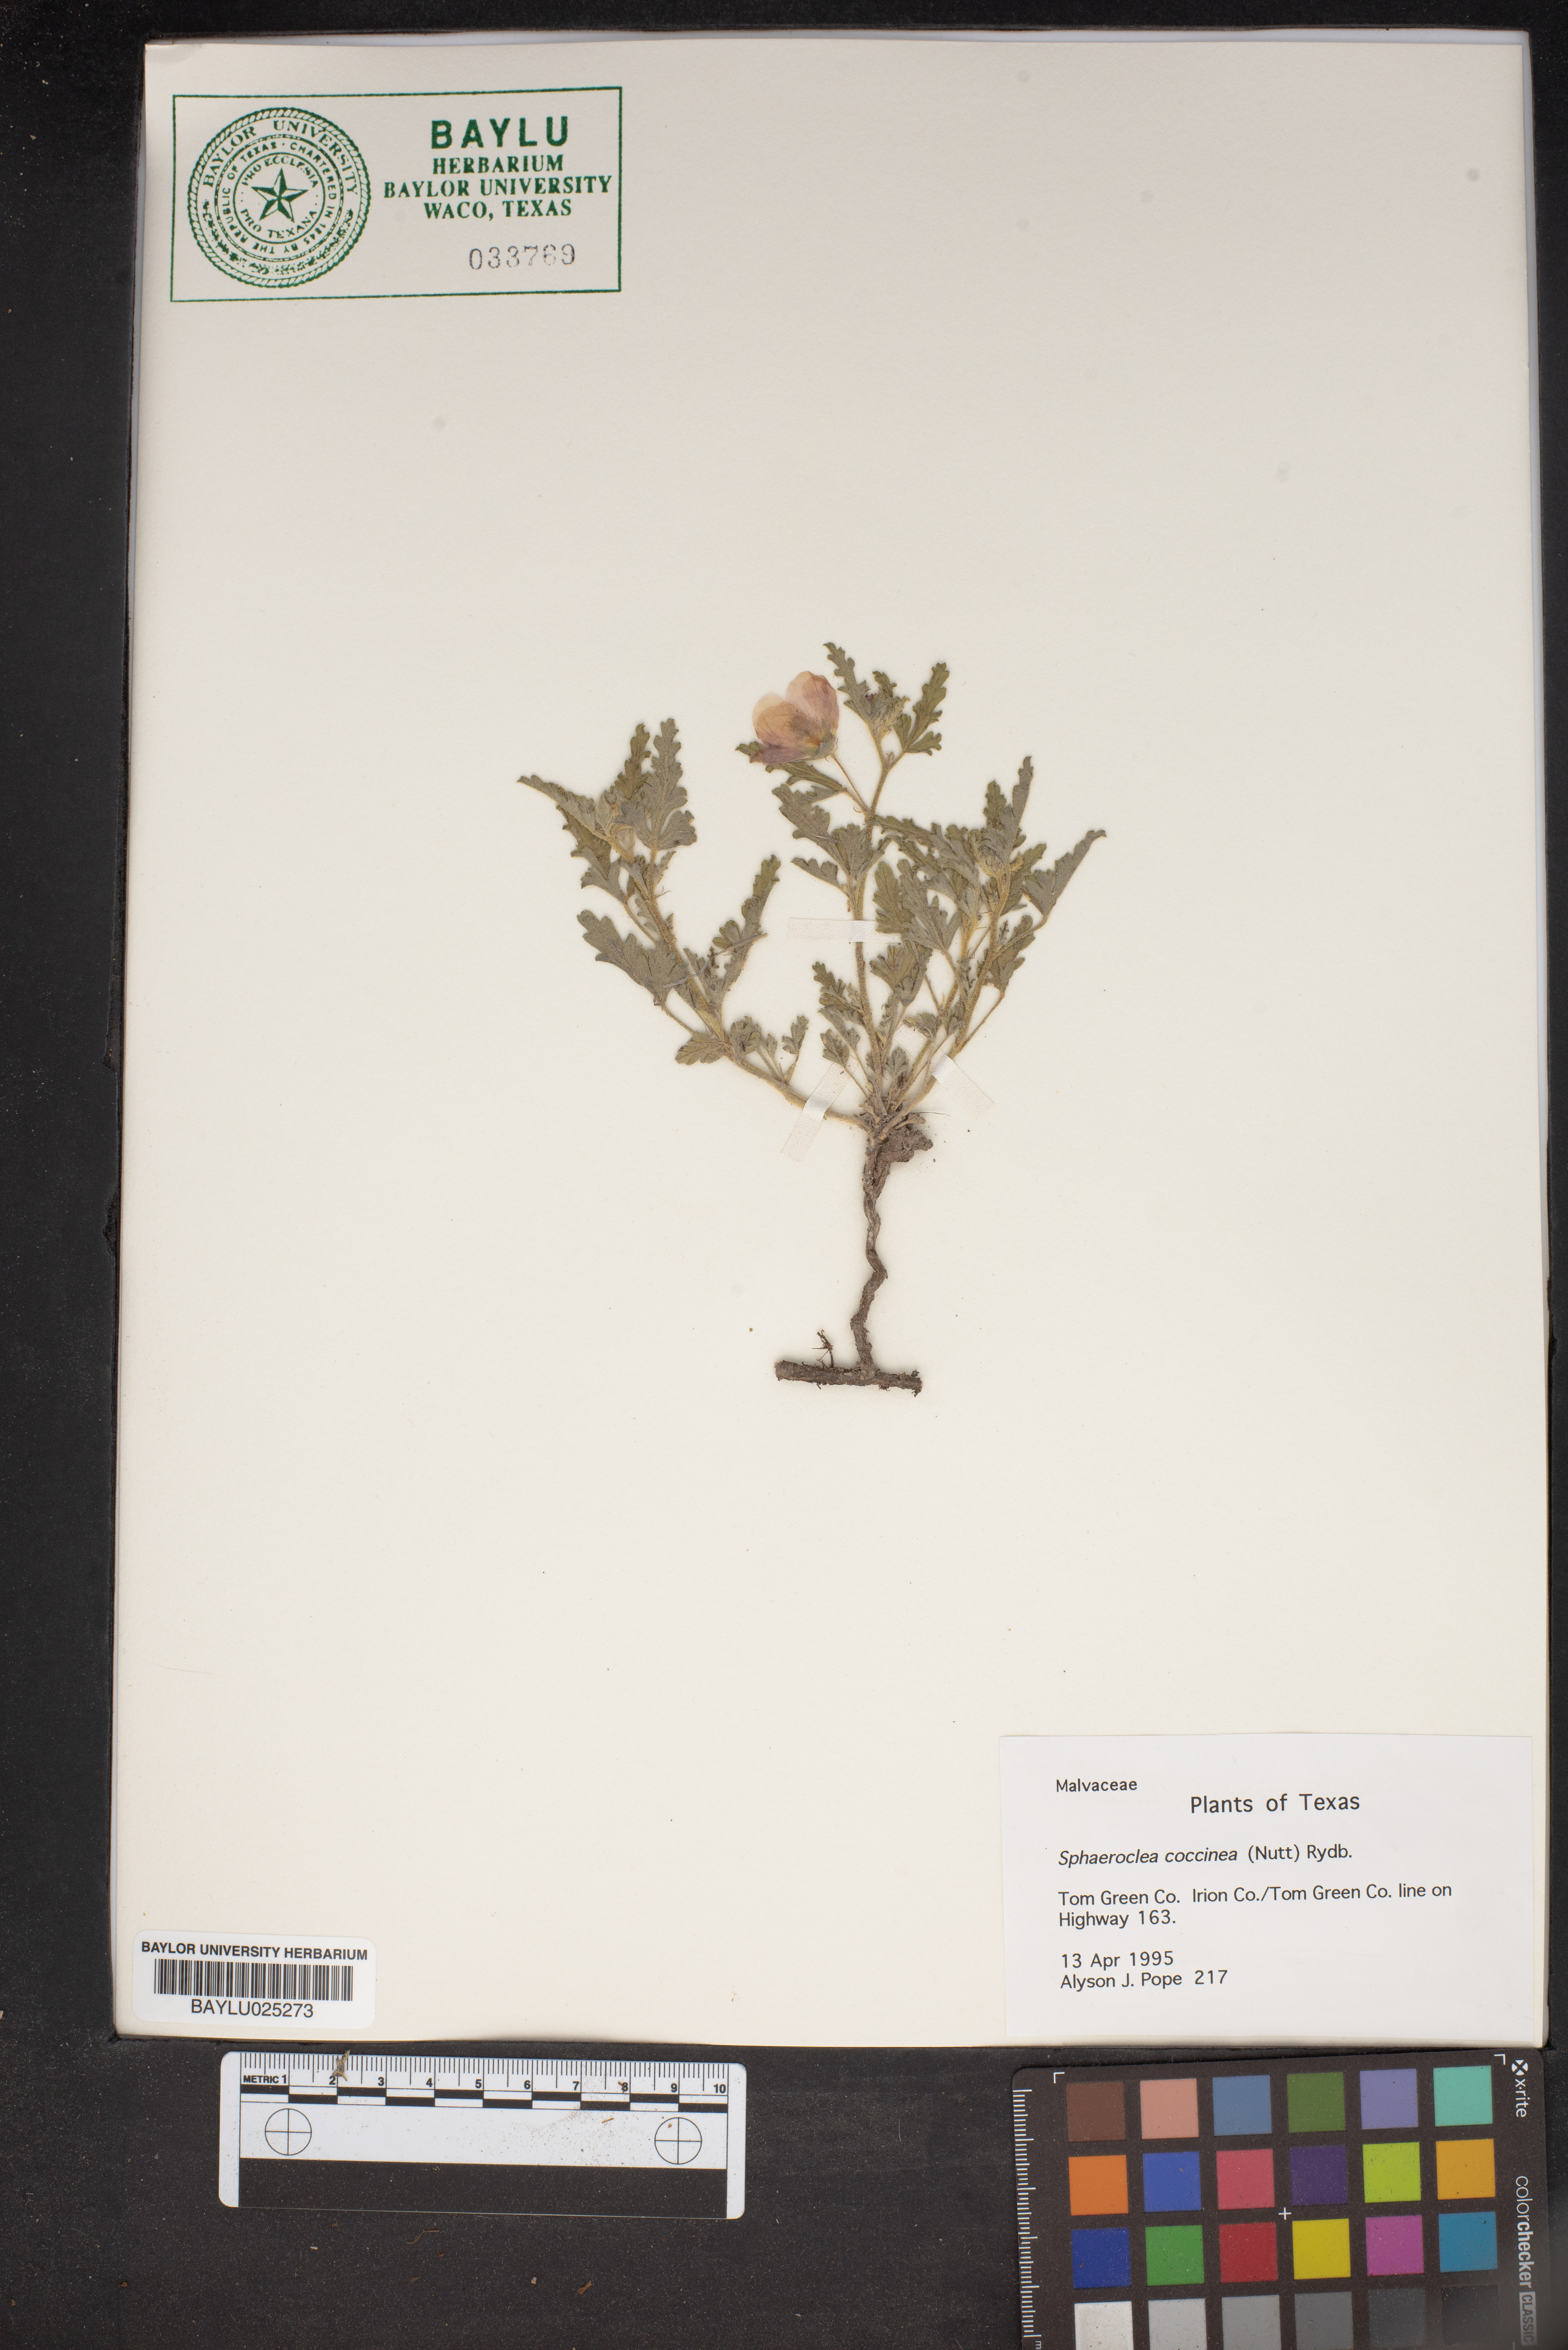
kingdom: Plantae
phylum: Tracheophyta
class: Magnoliopsida
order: Malvales
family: Malvaceae
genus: Sphaeralcea
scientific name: Sphaeralcea coccinea
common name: Moss-rose
